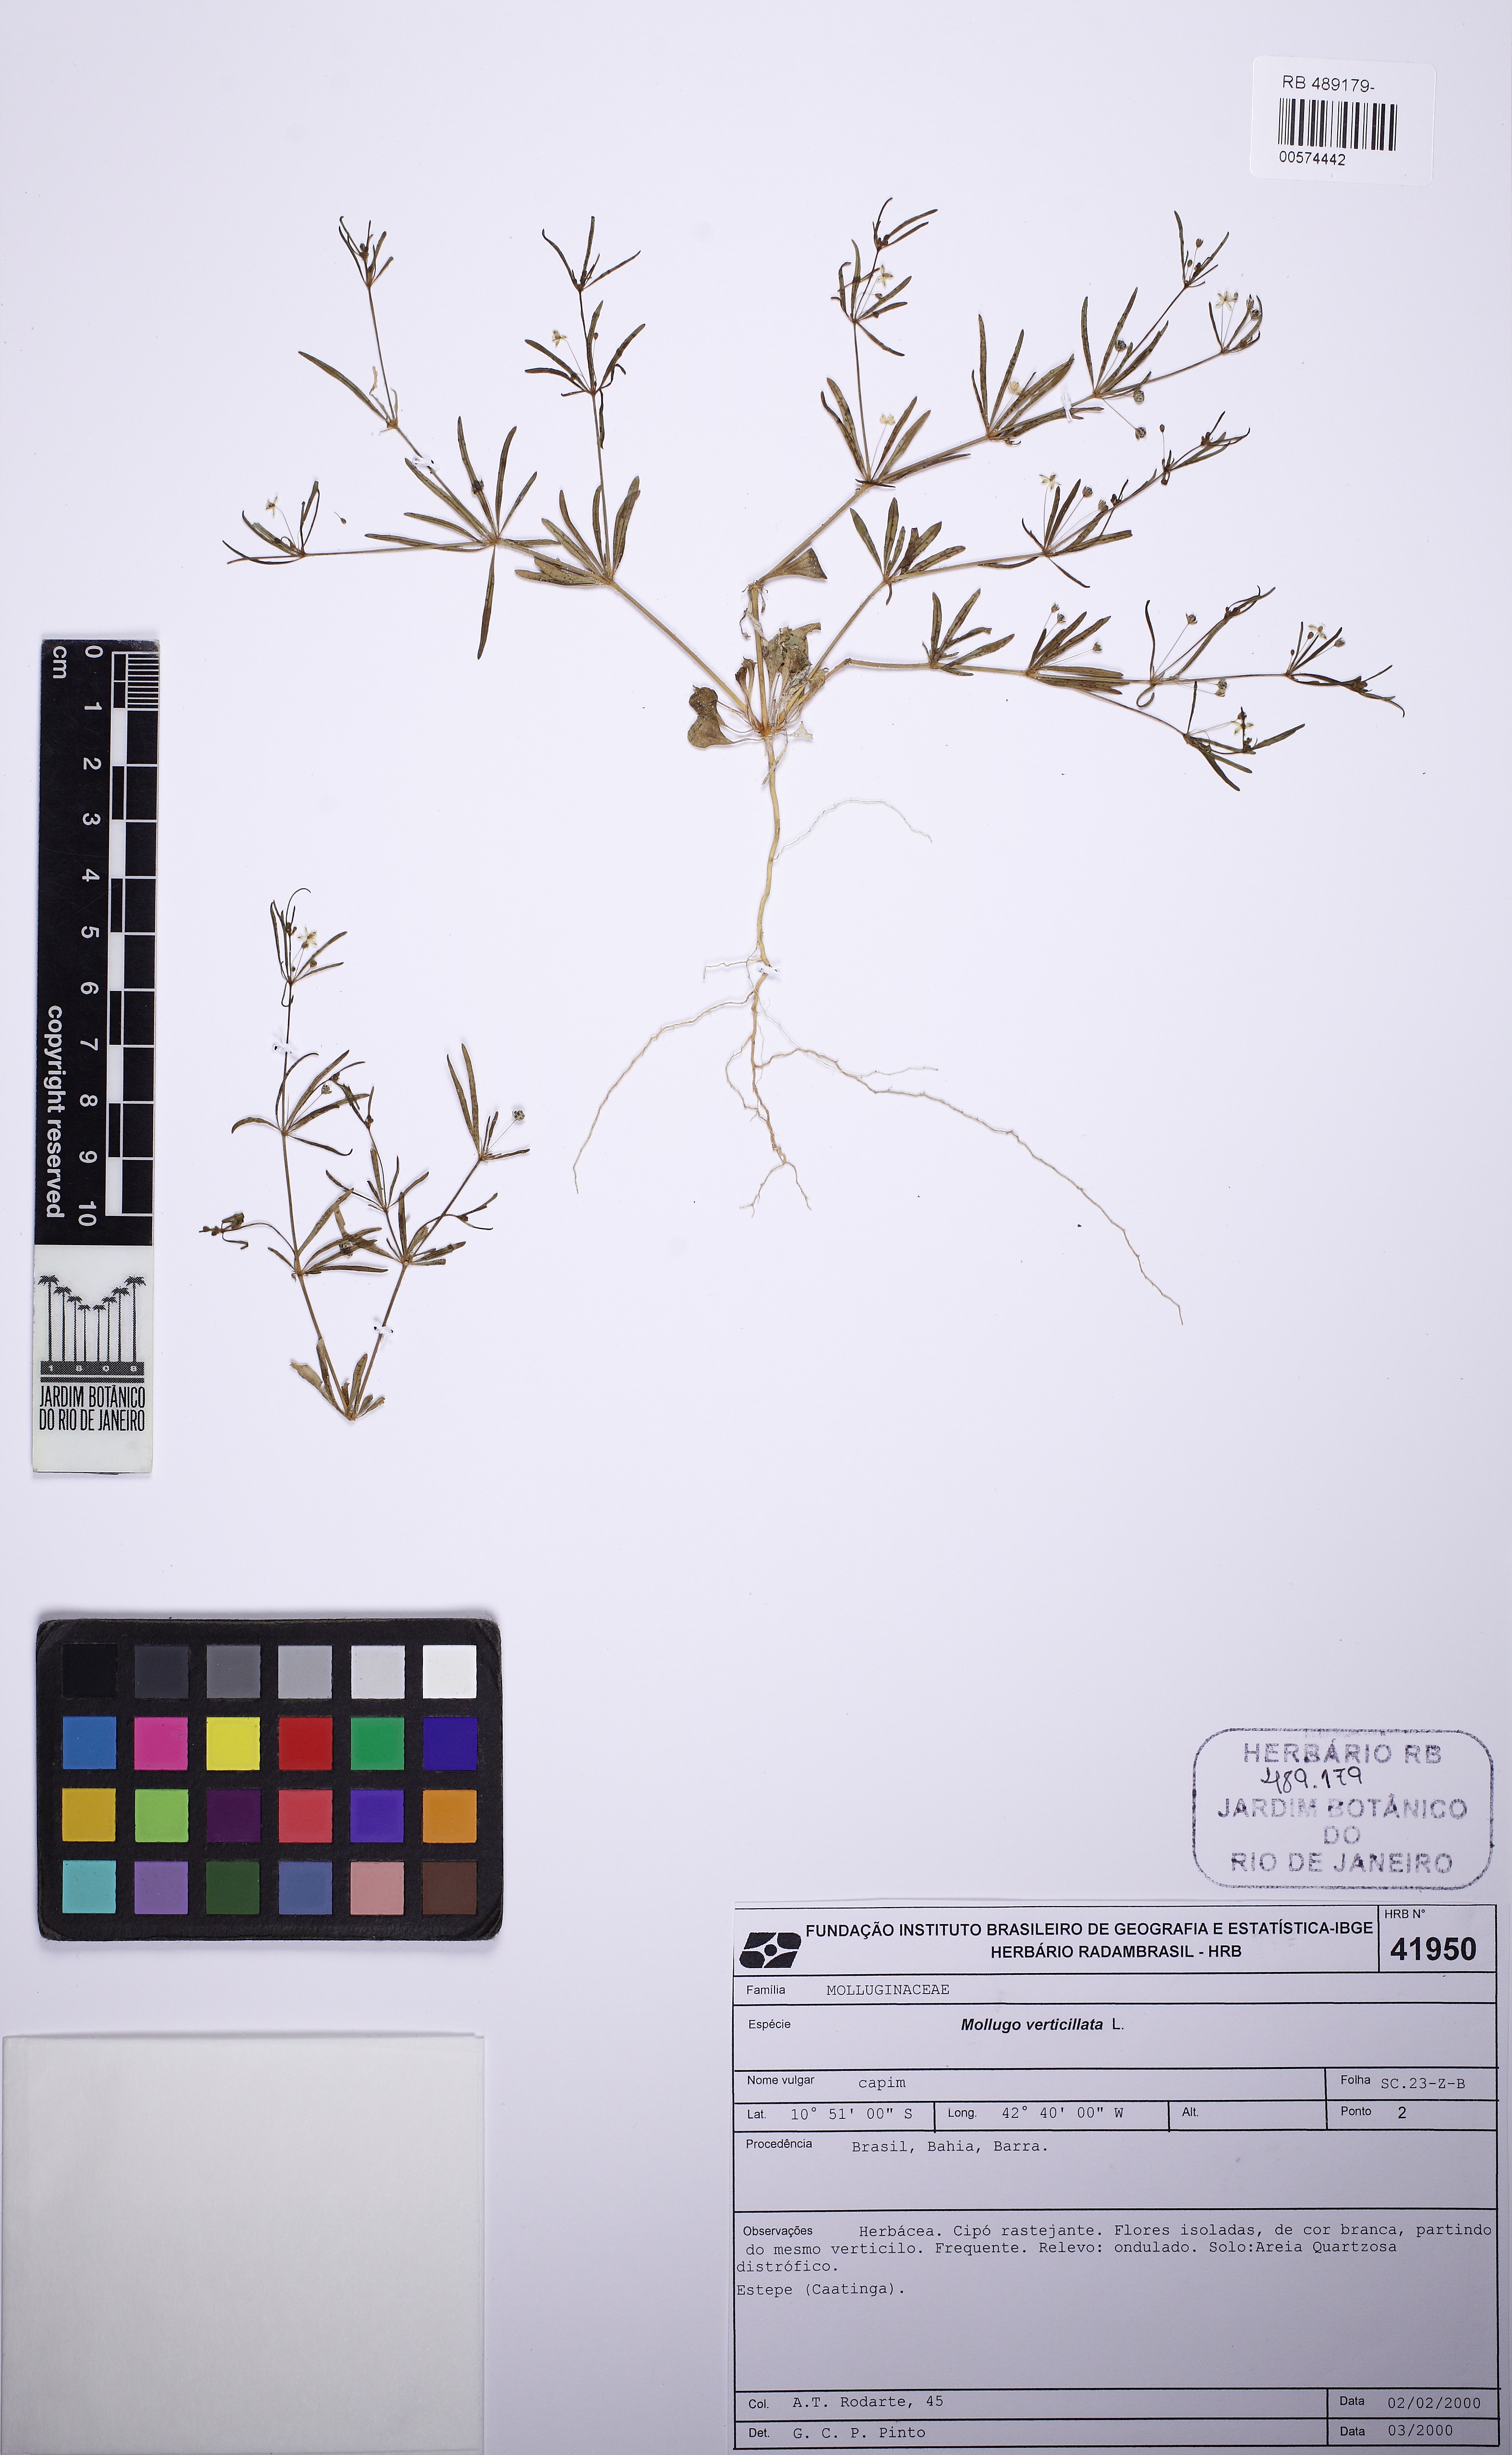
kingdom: Plantae
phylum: Tracheophyta
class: Magnoliopsida
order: Caryophyllales
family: Molluginaceae
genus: Mollugo
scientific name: Mollugo verticillata
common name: Green carpetweed
